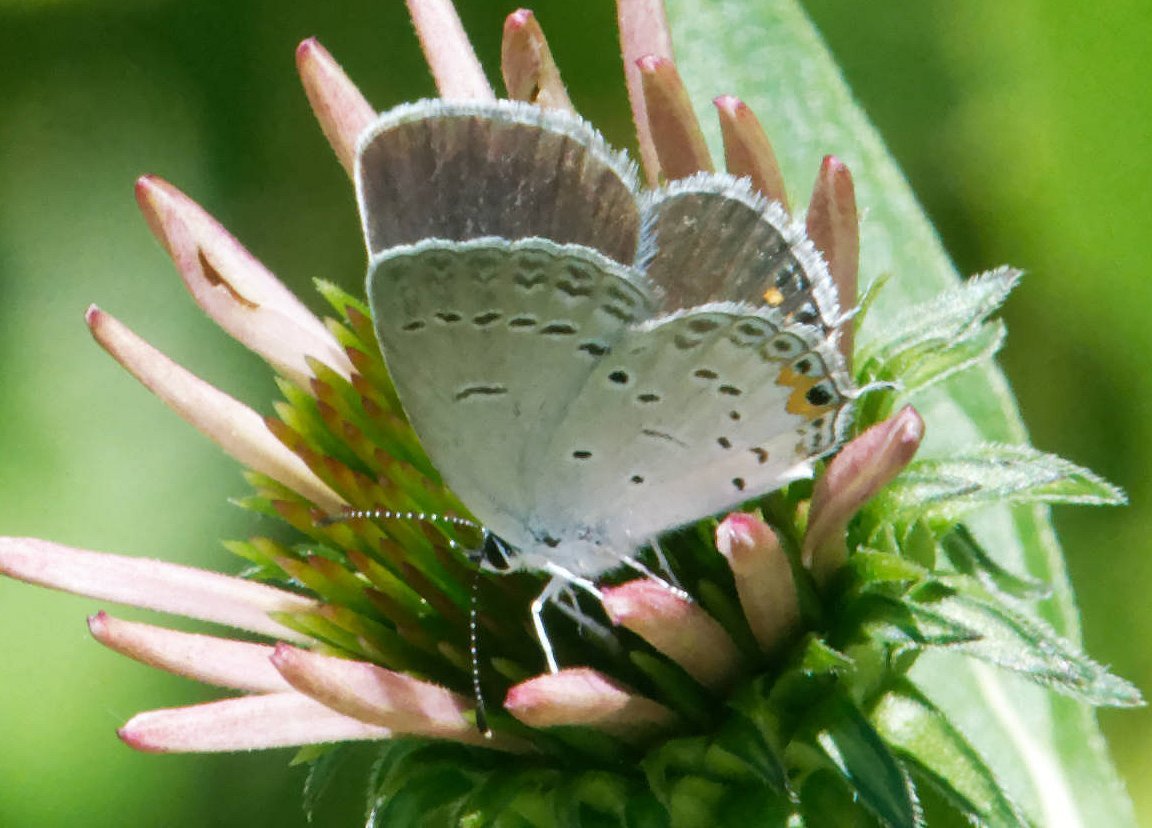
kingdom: Animalia
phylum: Arthropoda
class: Insecta
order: Lepidoptera
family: Lycaenidae
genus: Elkalyce
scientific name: Elkalyce comyntas
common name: Eastern Tailed-Blue
